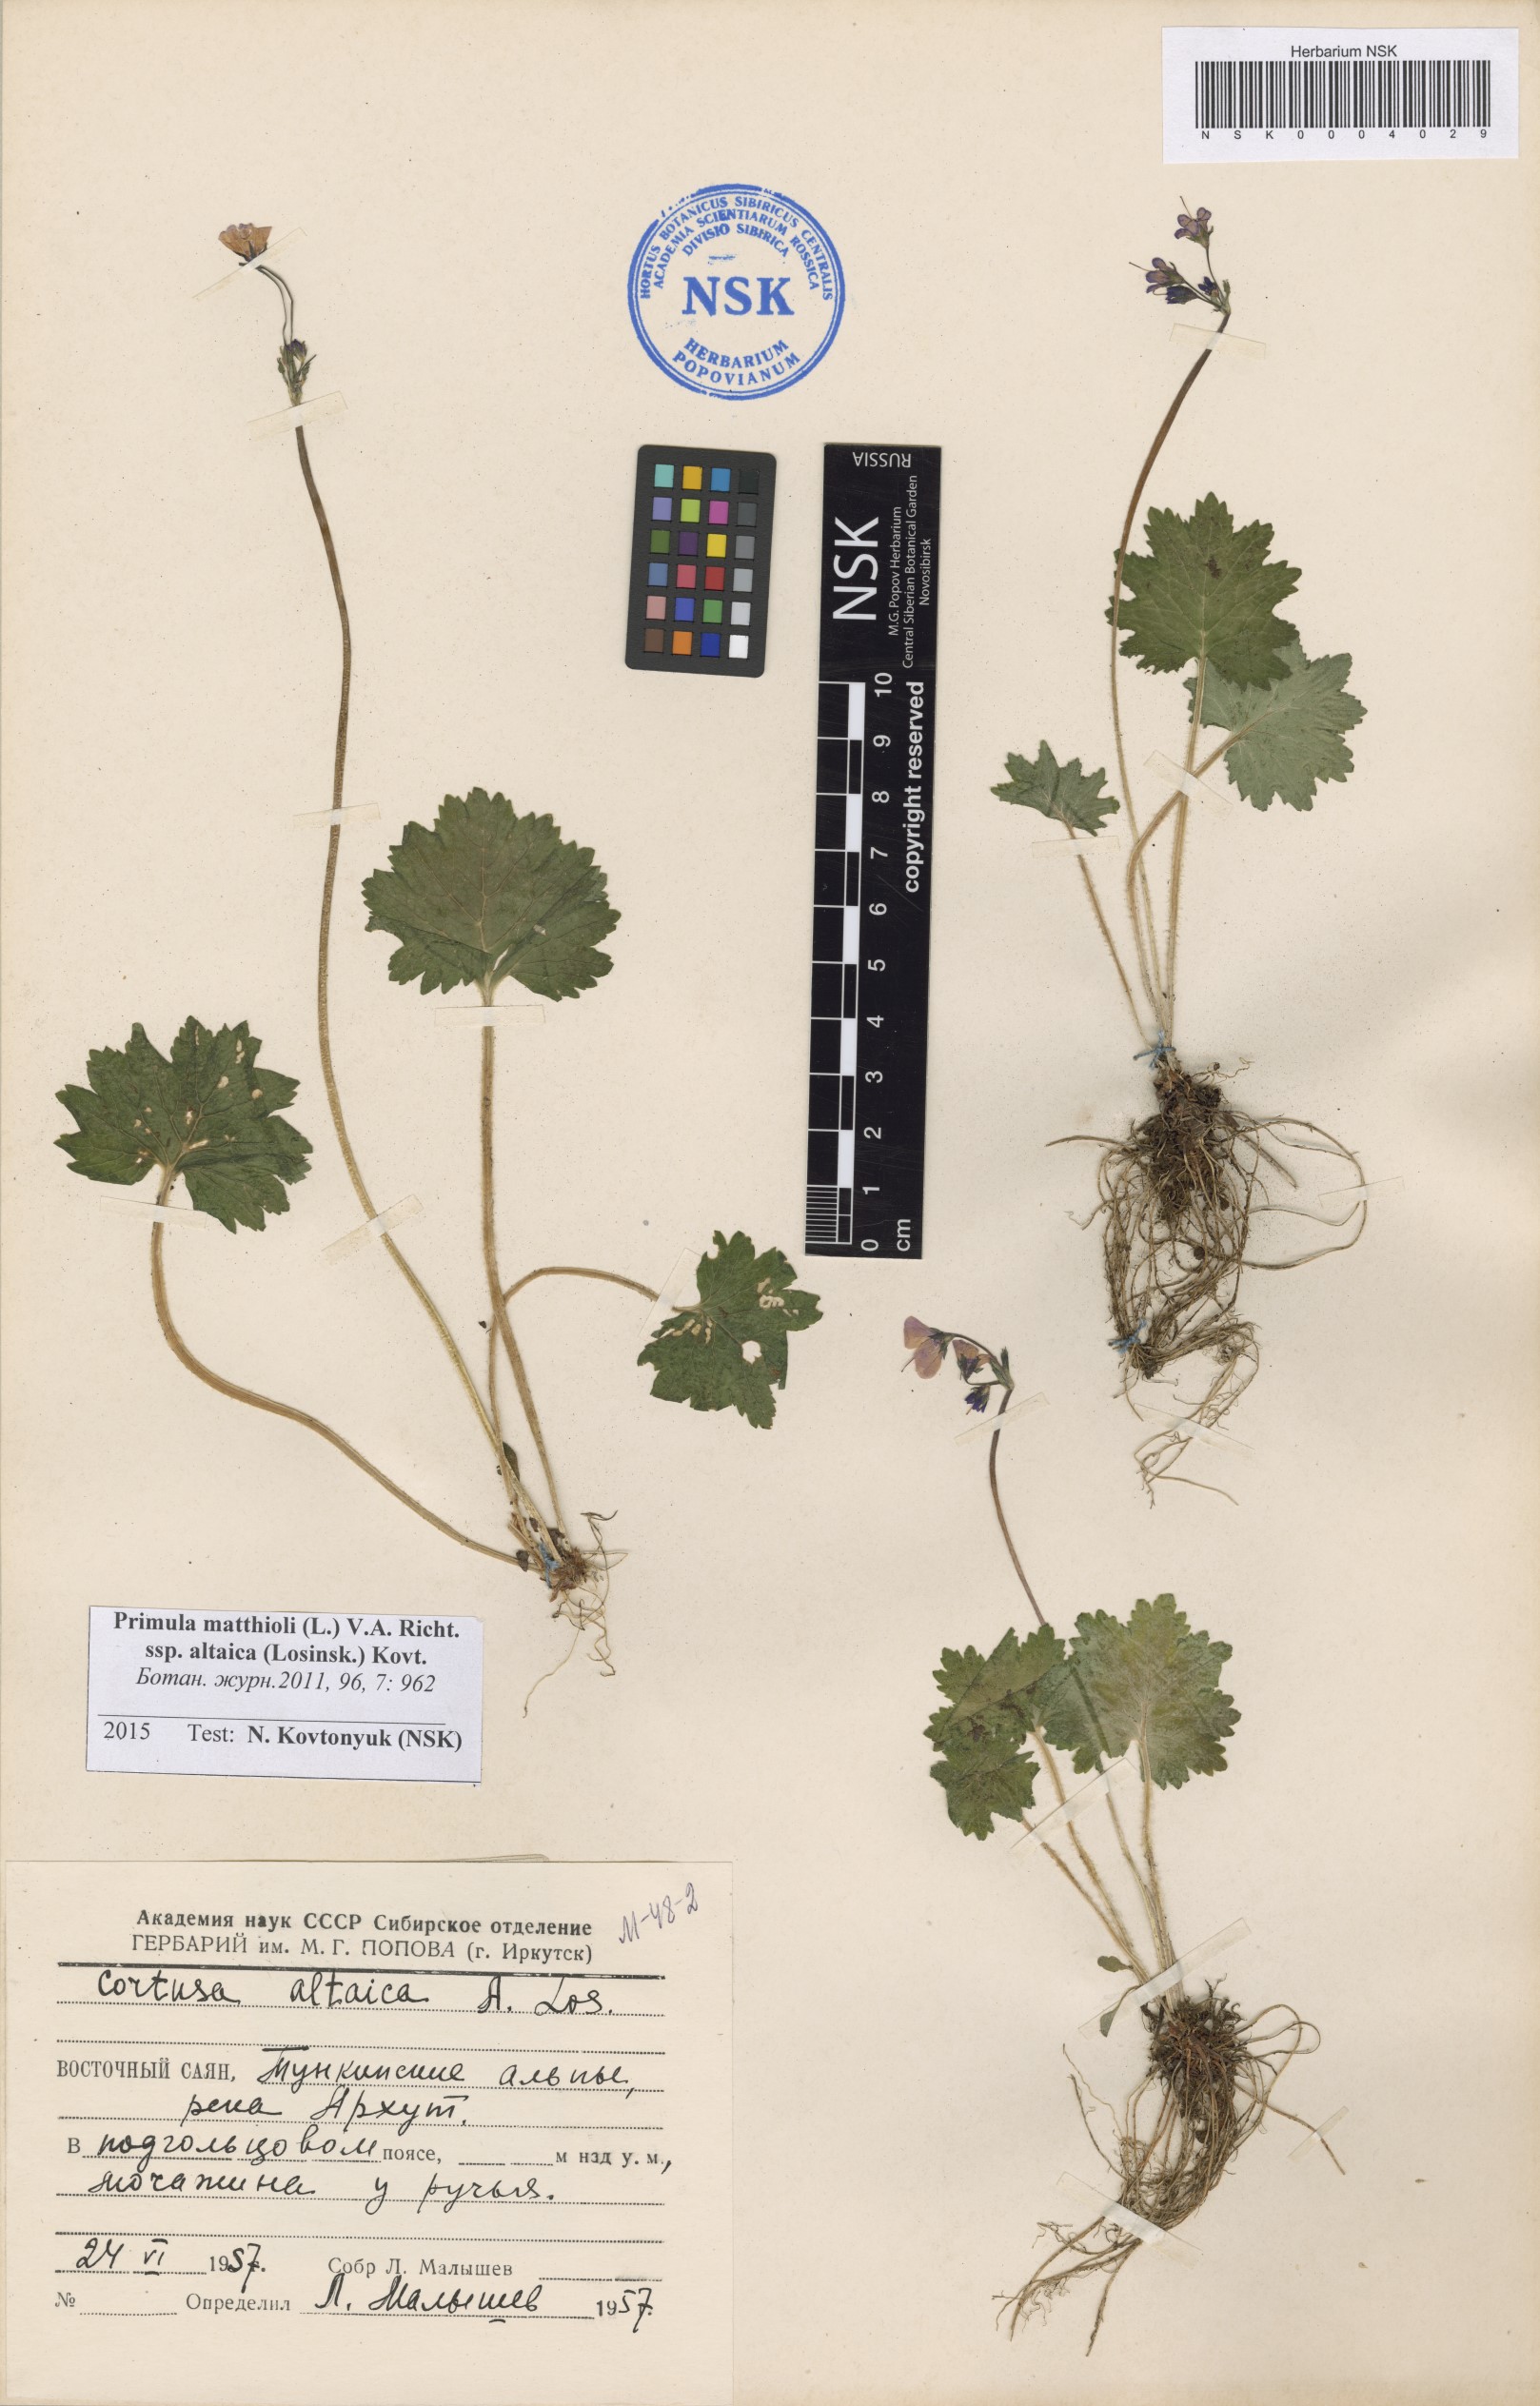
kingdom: Plantae
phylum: Tracheophyta
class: Magnoliopsida
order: Ericales
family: Primulaceae
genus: Primula
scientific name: Primula matthioli
